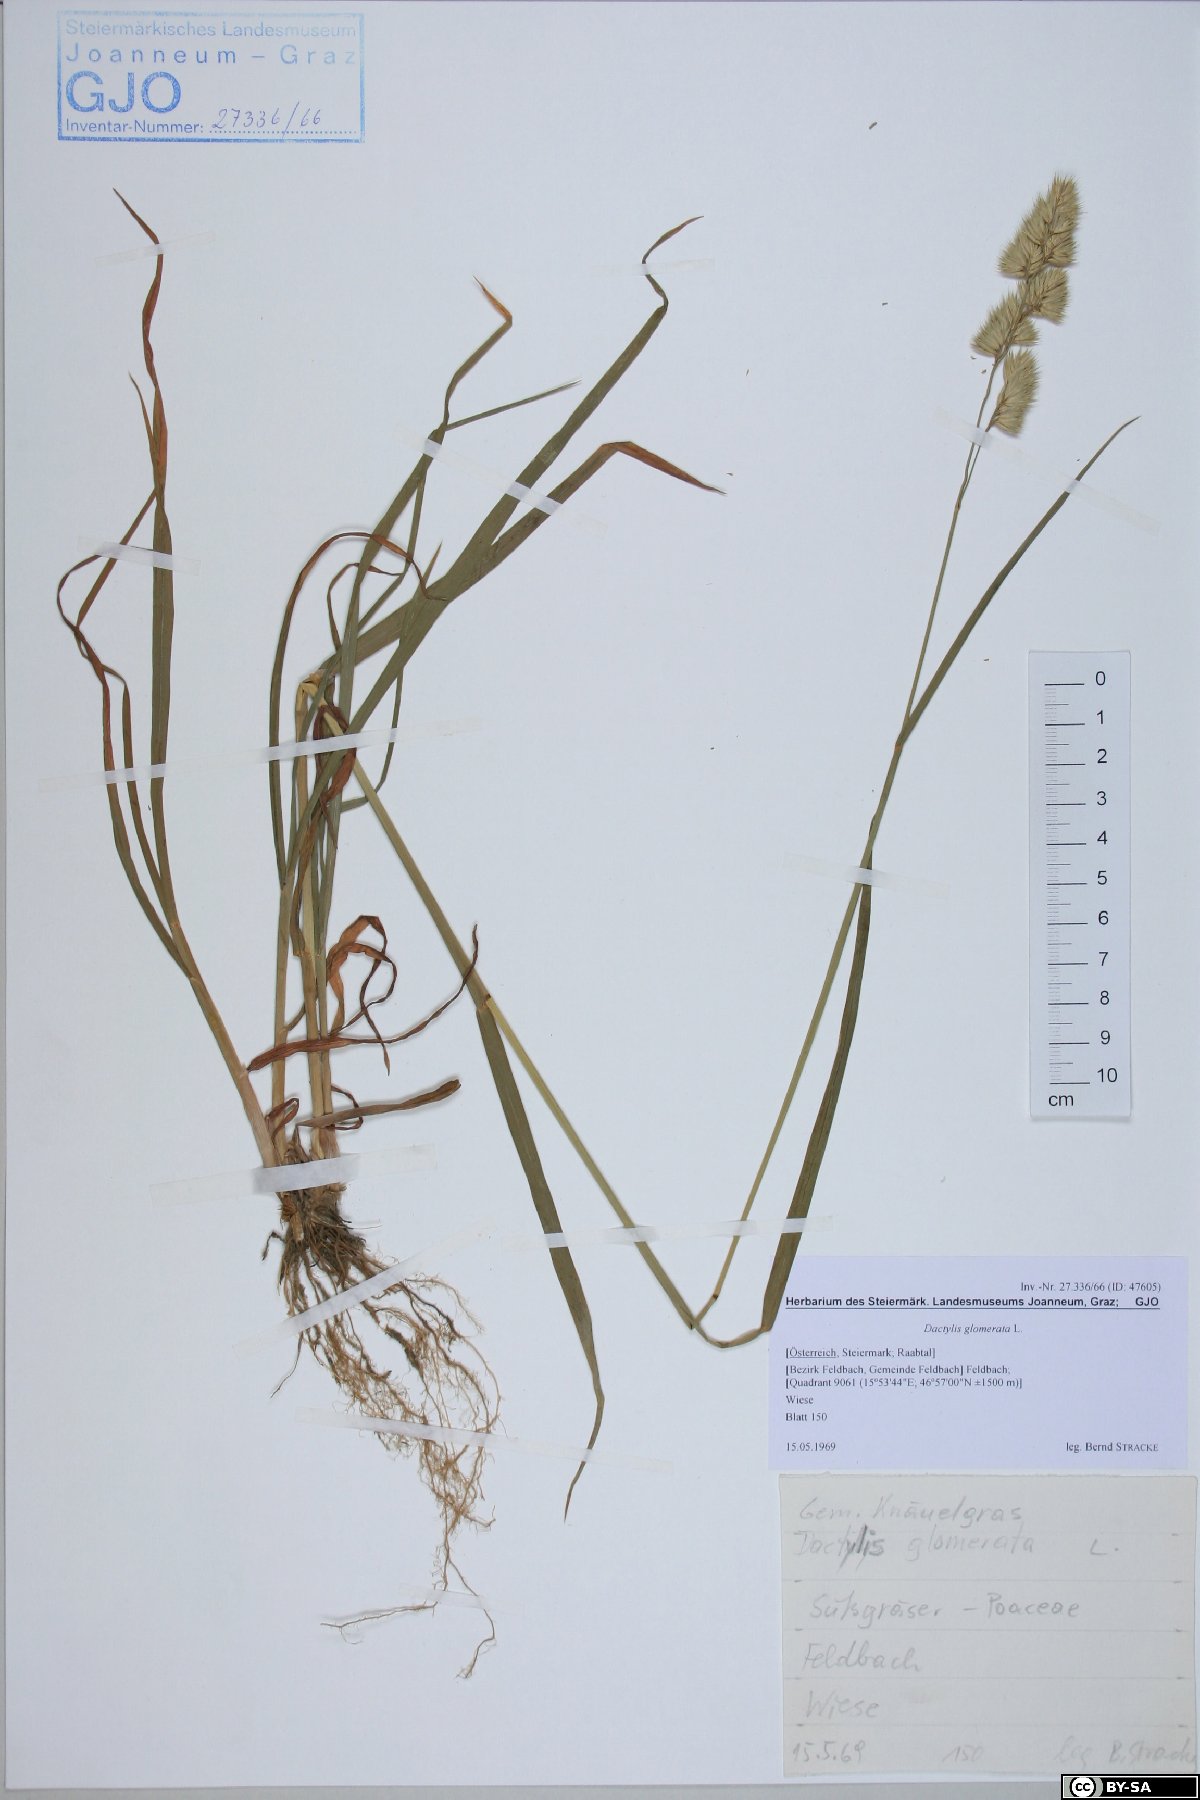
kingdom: Plantae
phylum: Tracheophyta
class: Liliopsida
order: Poales
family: Poaceae
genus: Dactylis
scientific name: Dactylis glomerata
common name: Orchardgrass
